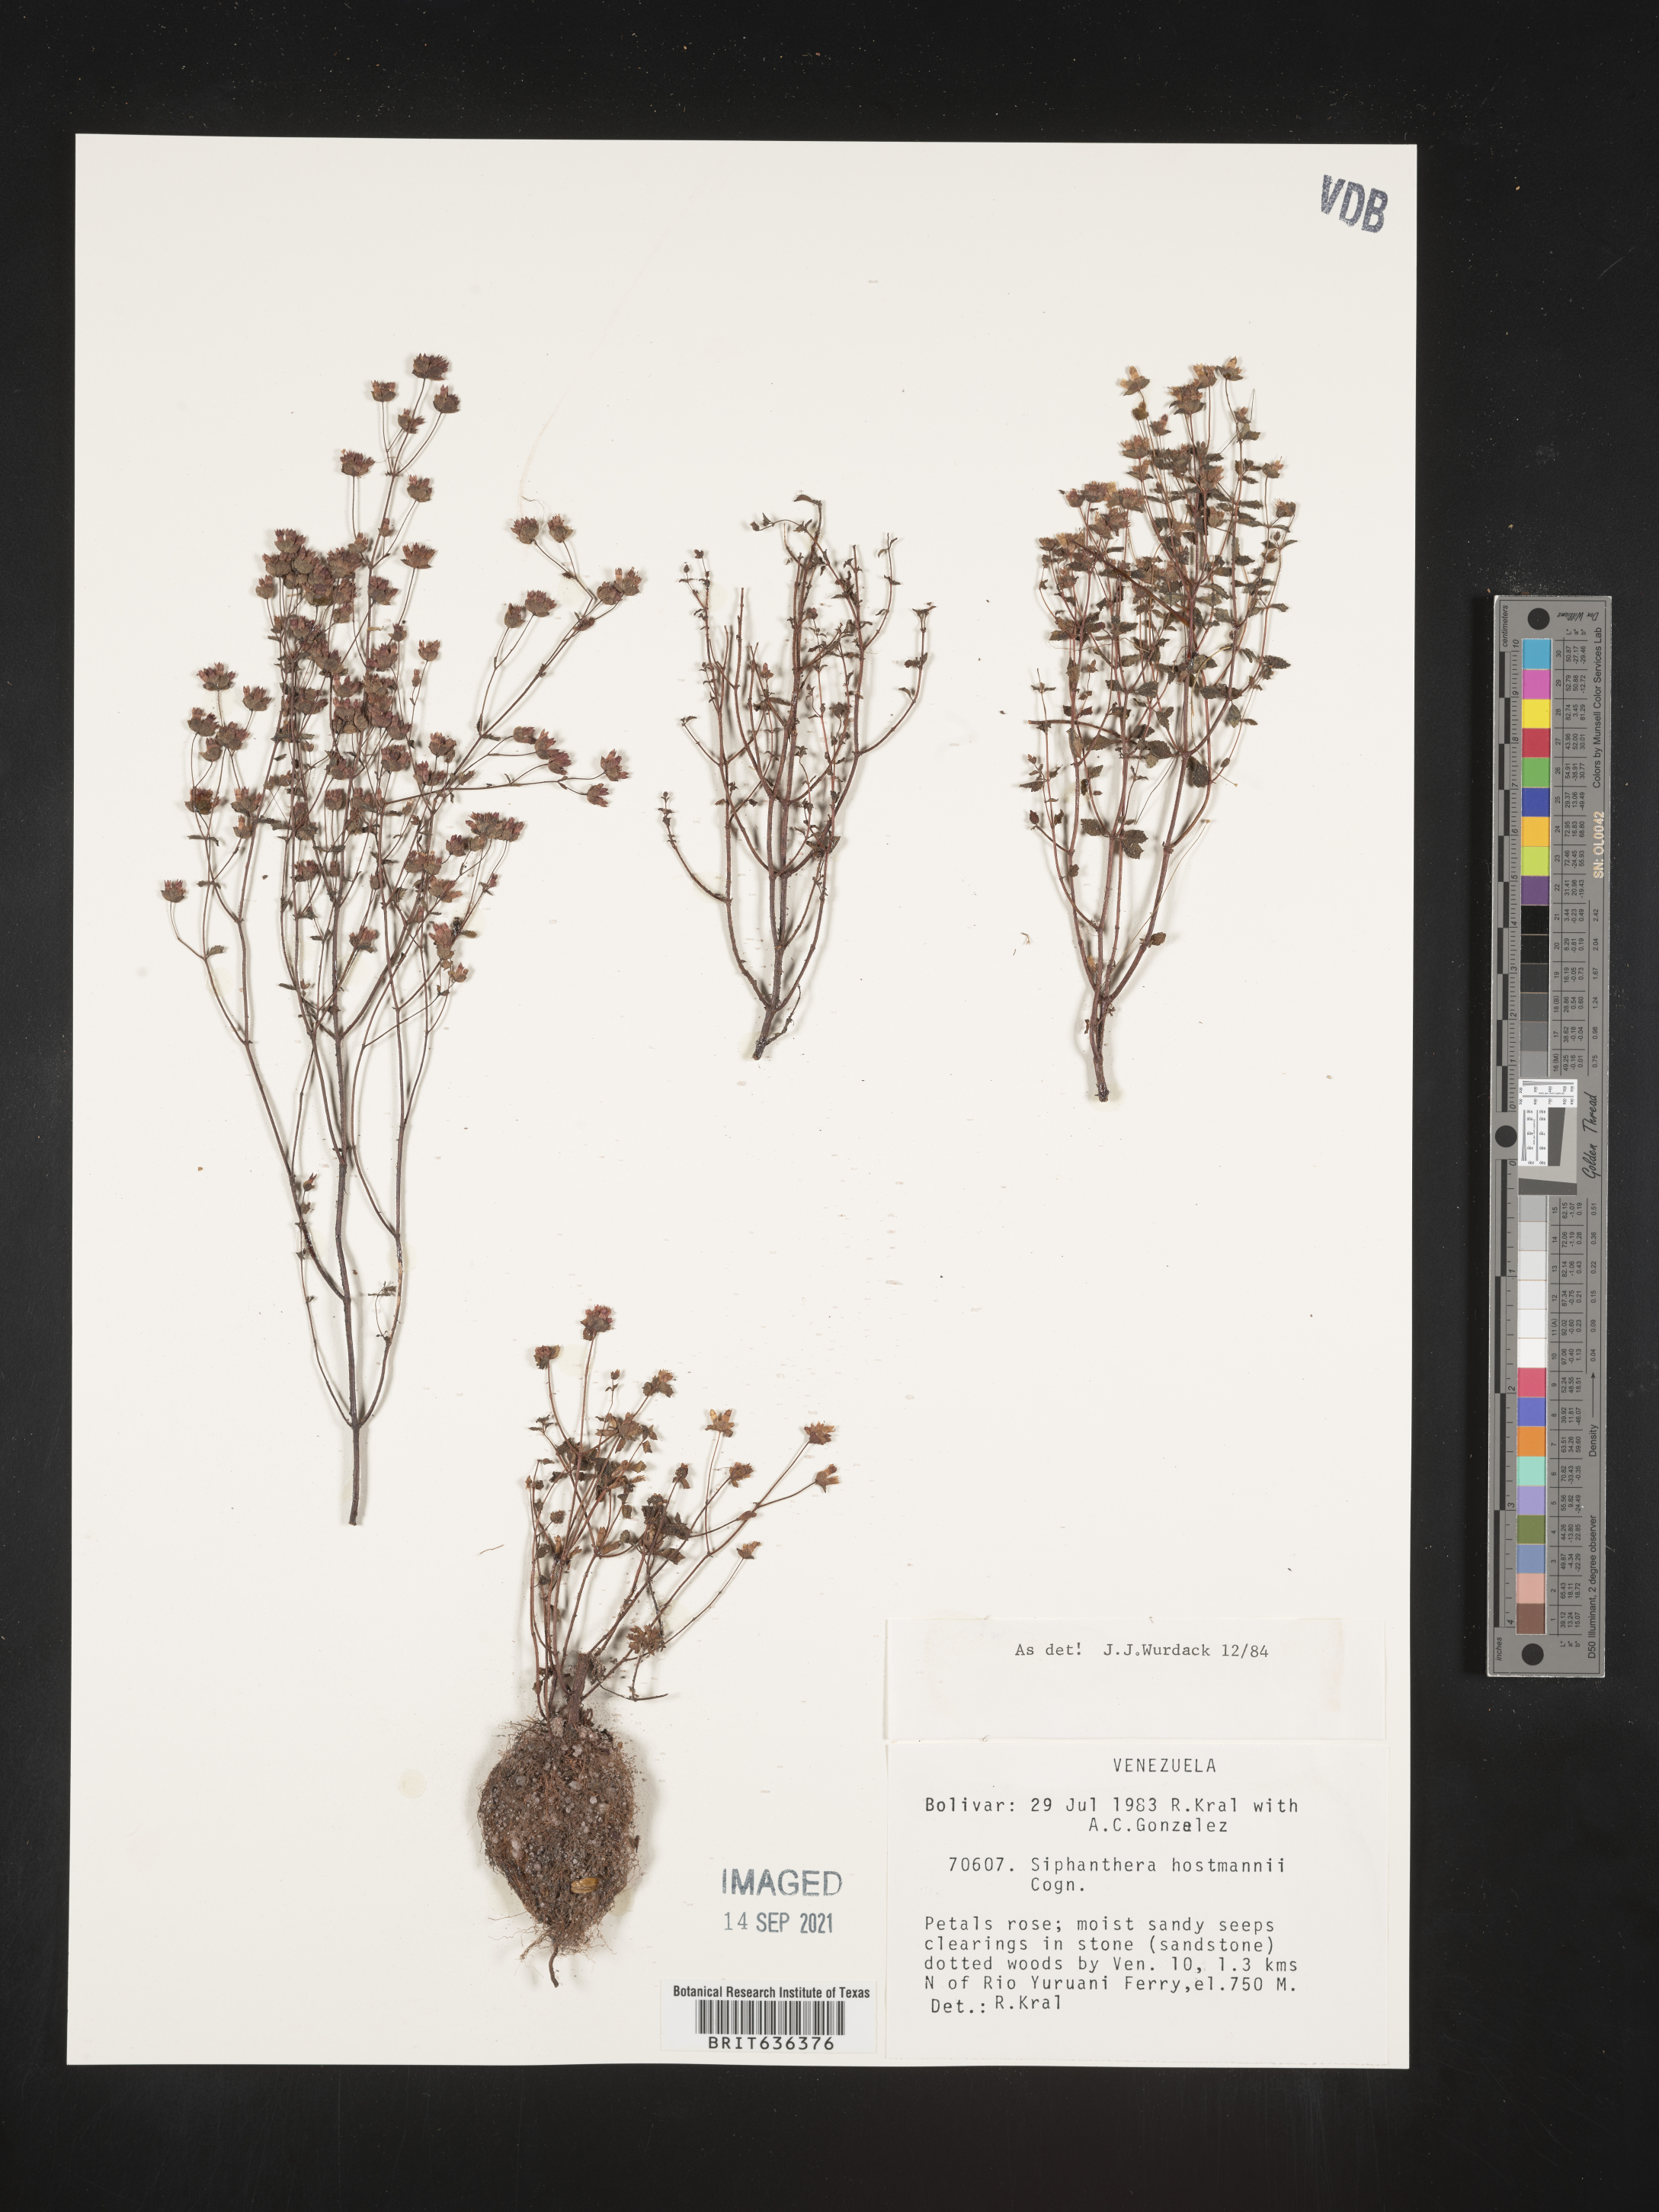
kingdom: Plantae
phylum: Tracheophyta
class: Magnoliopsida
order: Myrtales
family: Melastomataceae
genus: Siphanthera
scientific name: Siphanthera
